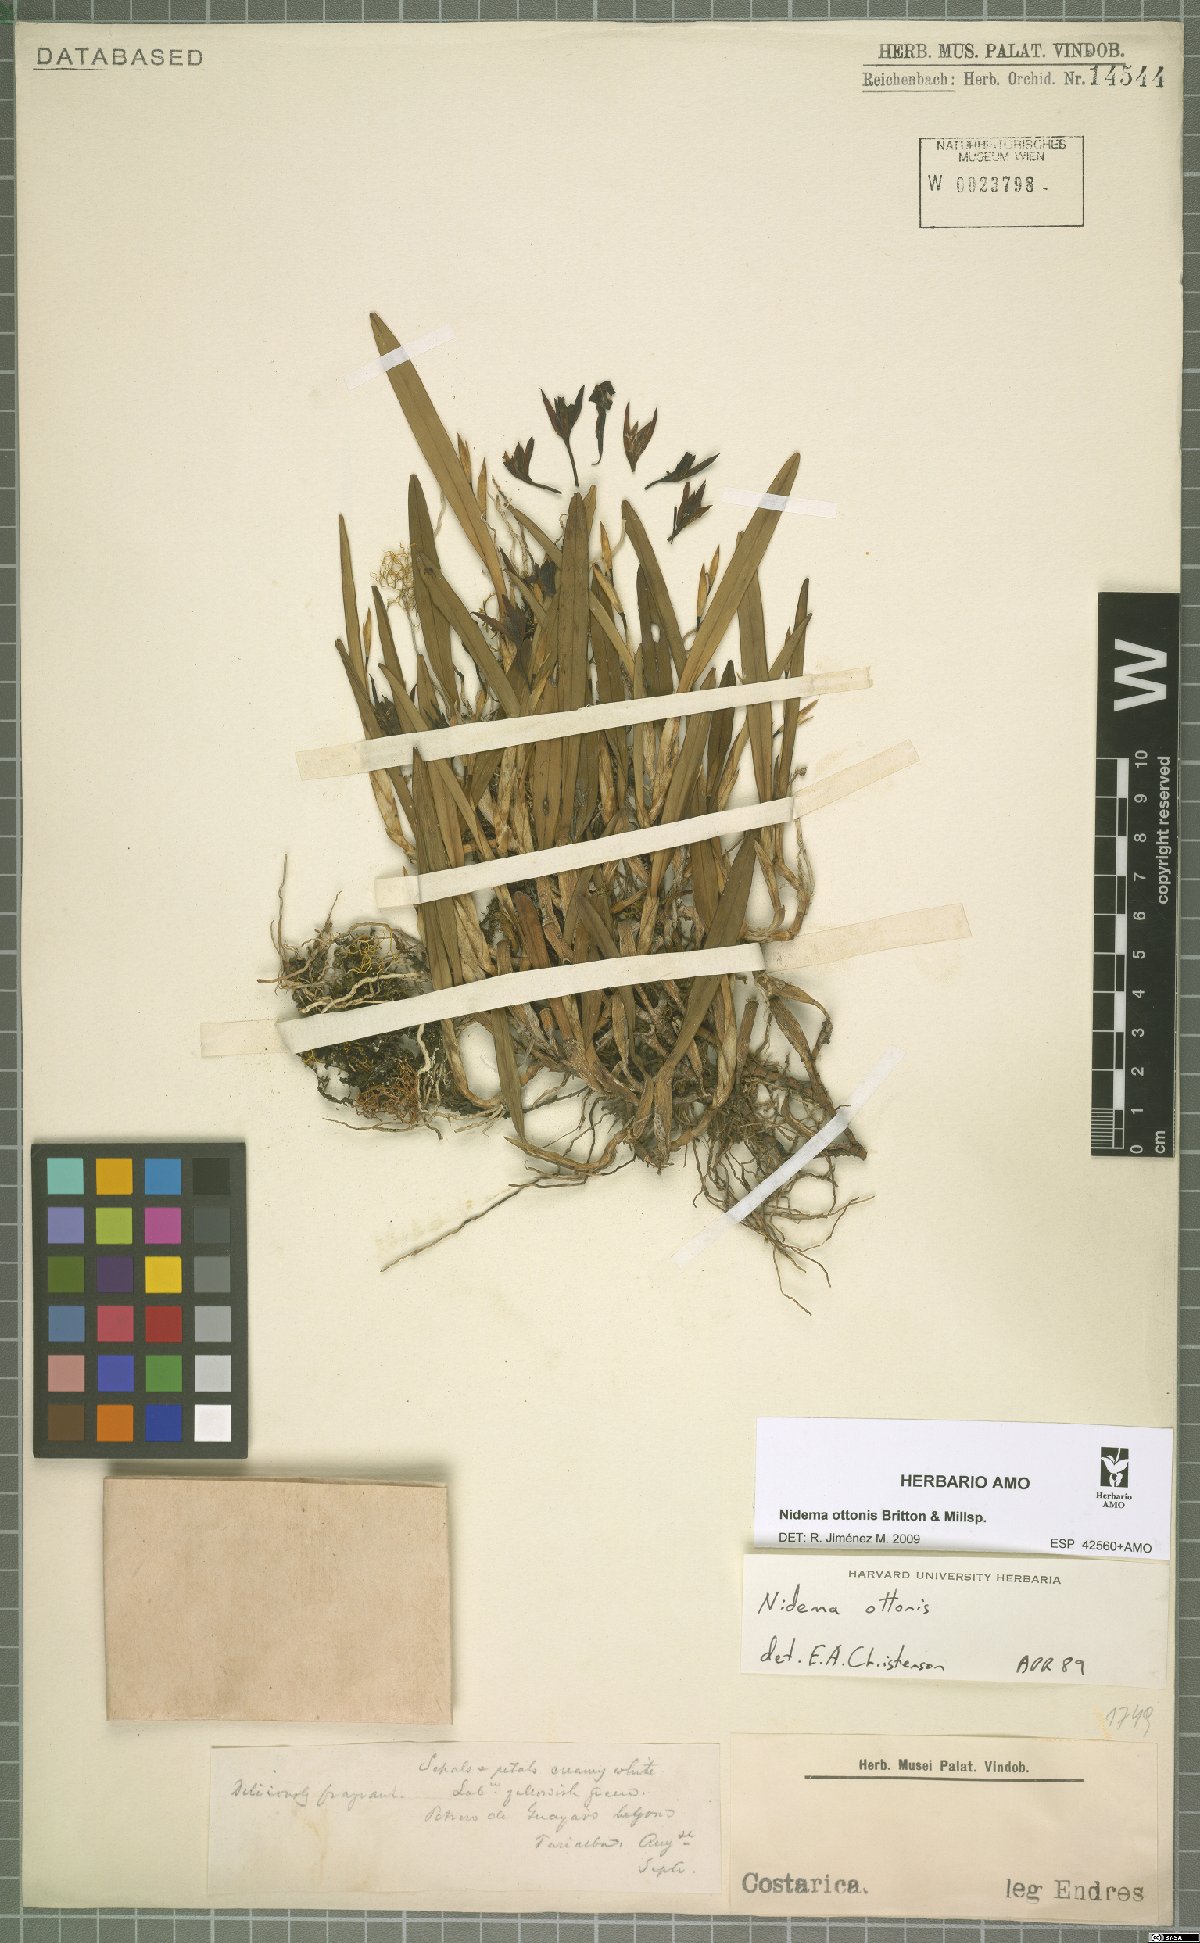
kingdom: Plantae
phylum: Tracheophyta
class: Liliopsida
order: Asparagales
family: Orchidaceae
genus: Nidema
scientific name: Nidema ottonis
